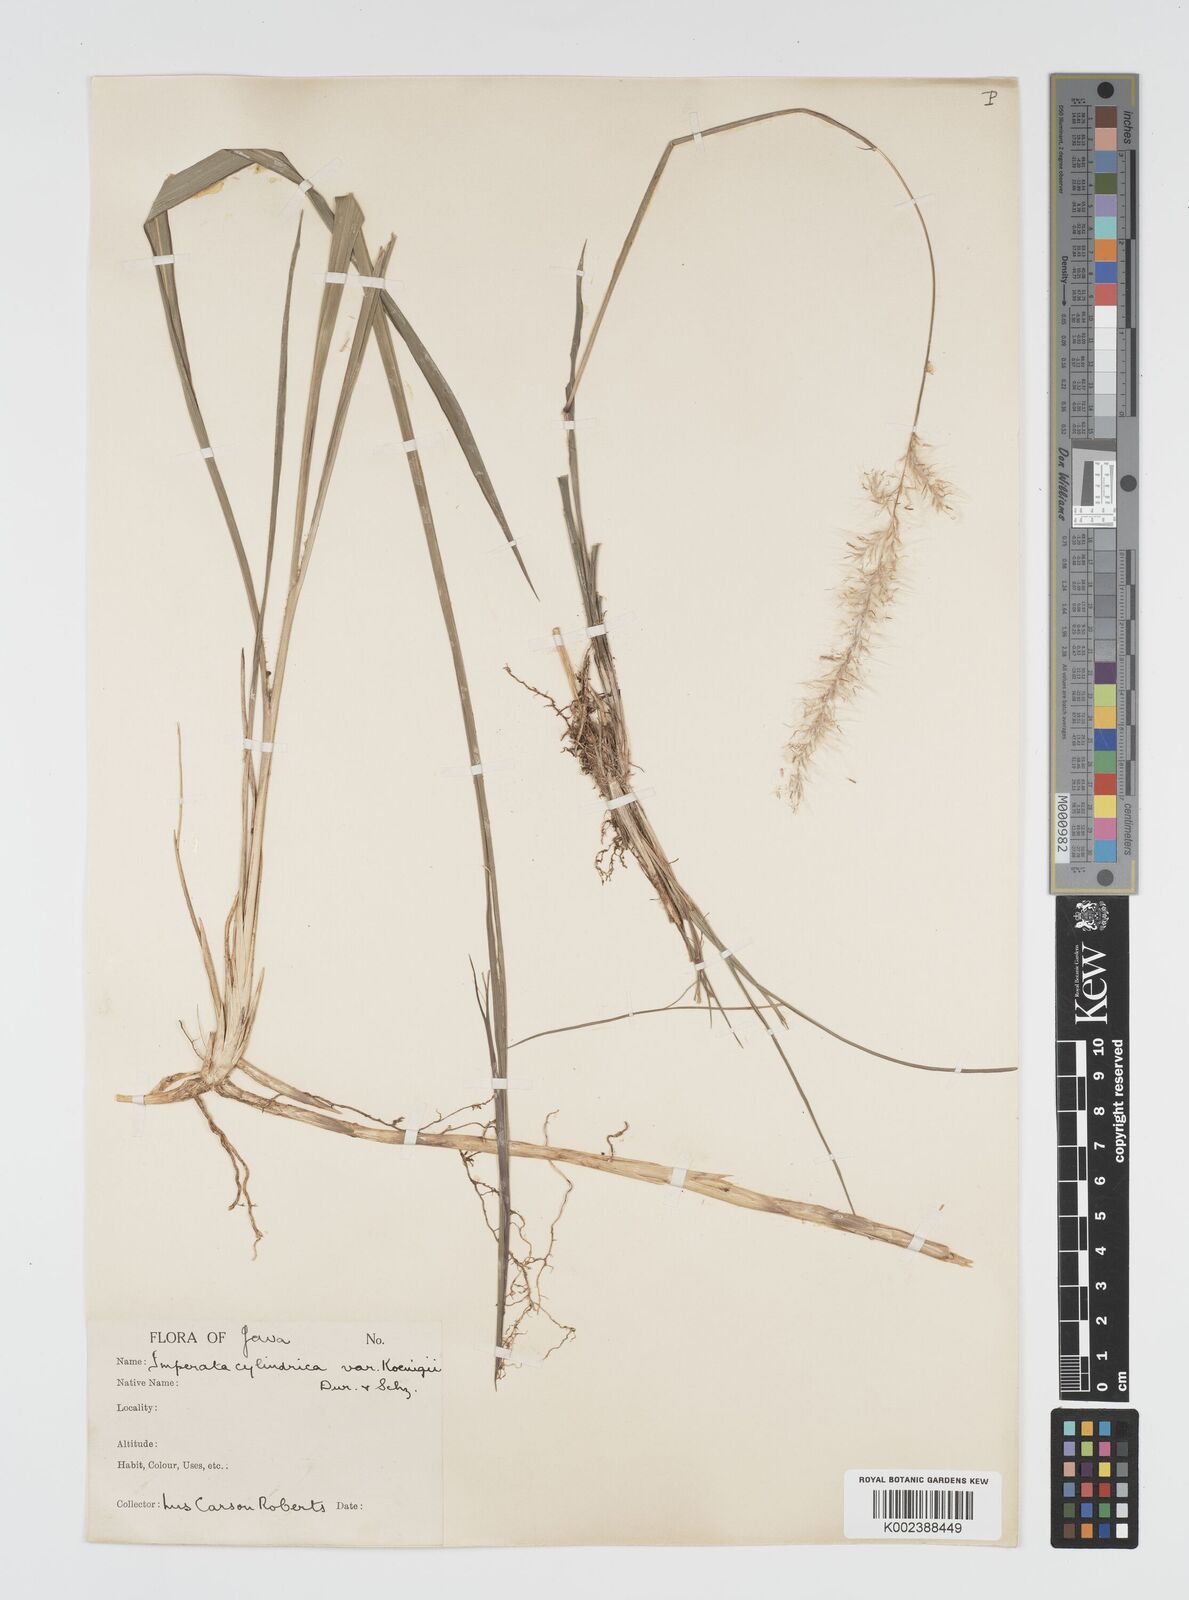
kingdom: Plantae
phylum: Tracheophyta
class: Liliopsida
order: Poales
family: Poaceae
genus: Imperata
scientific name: Imperata
